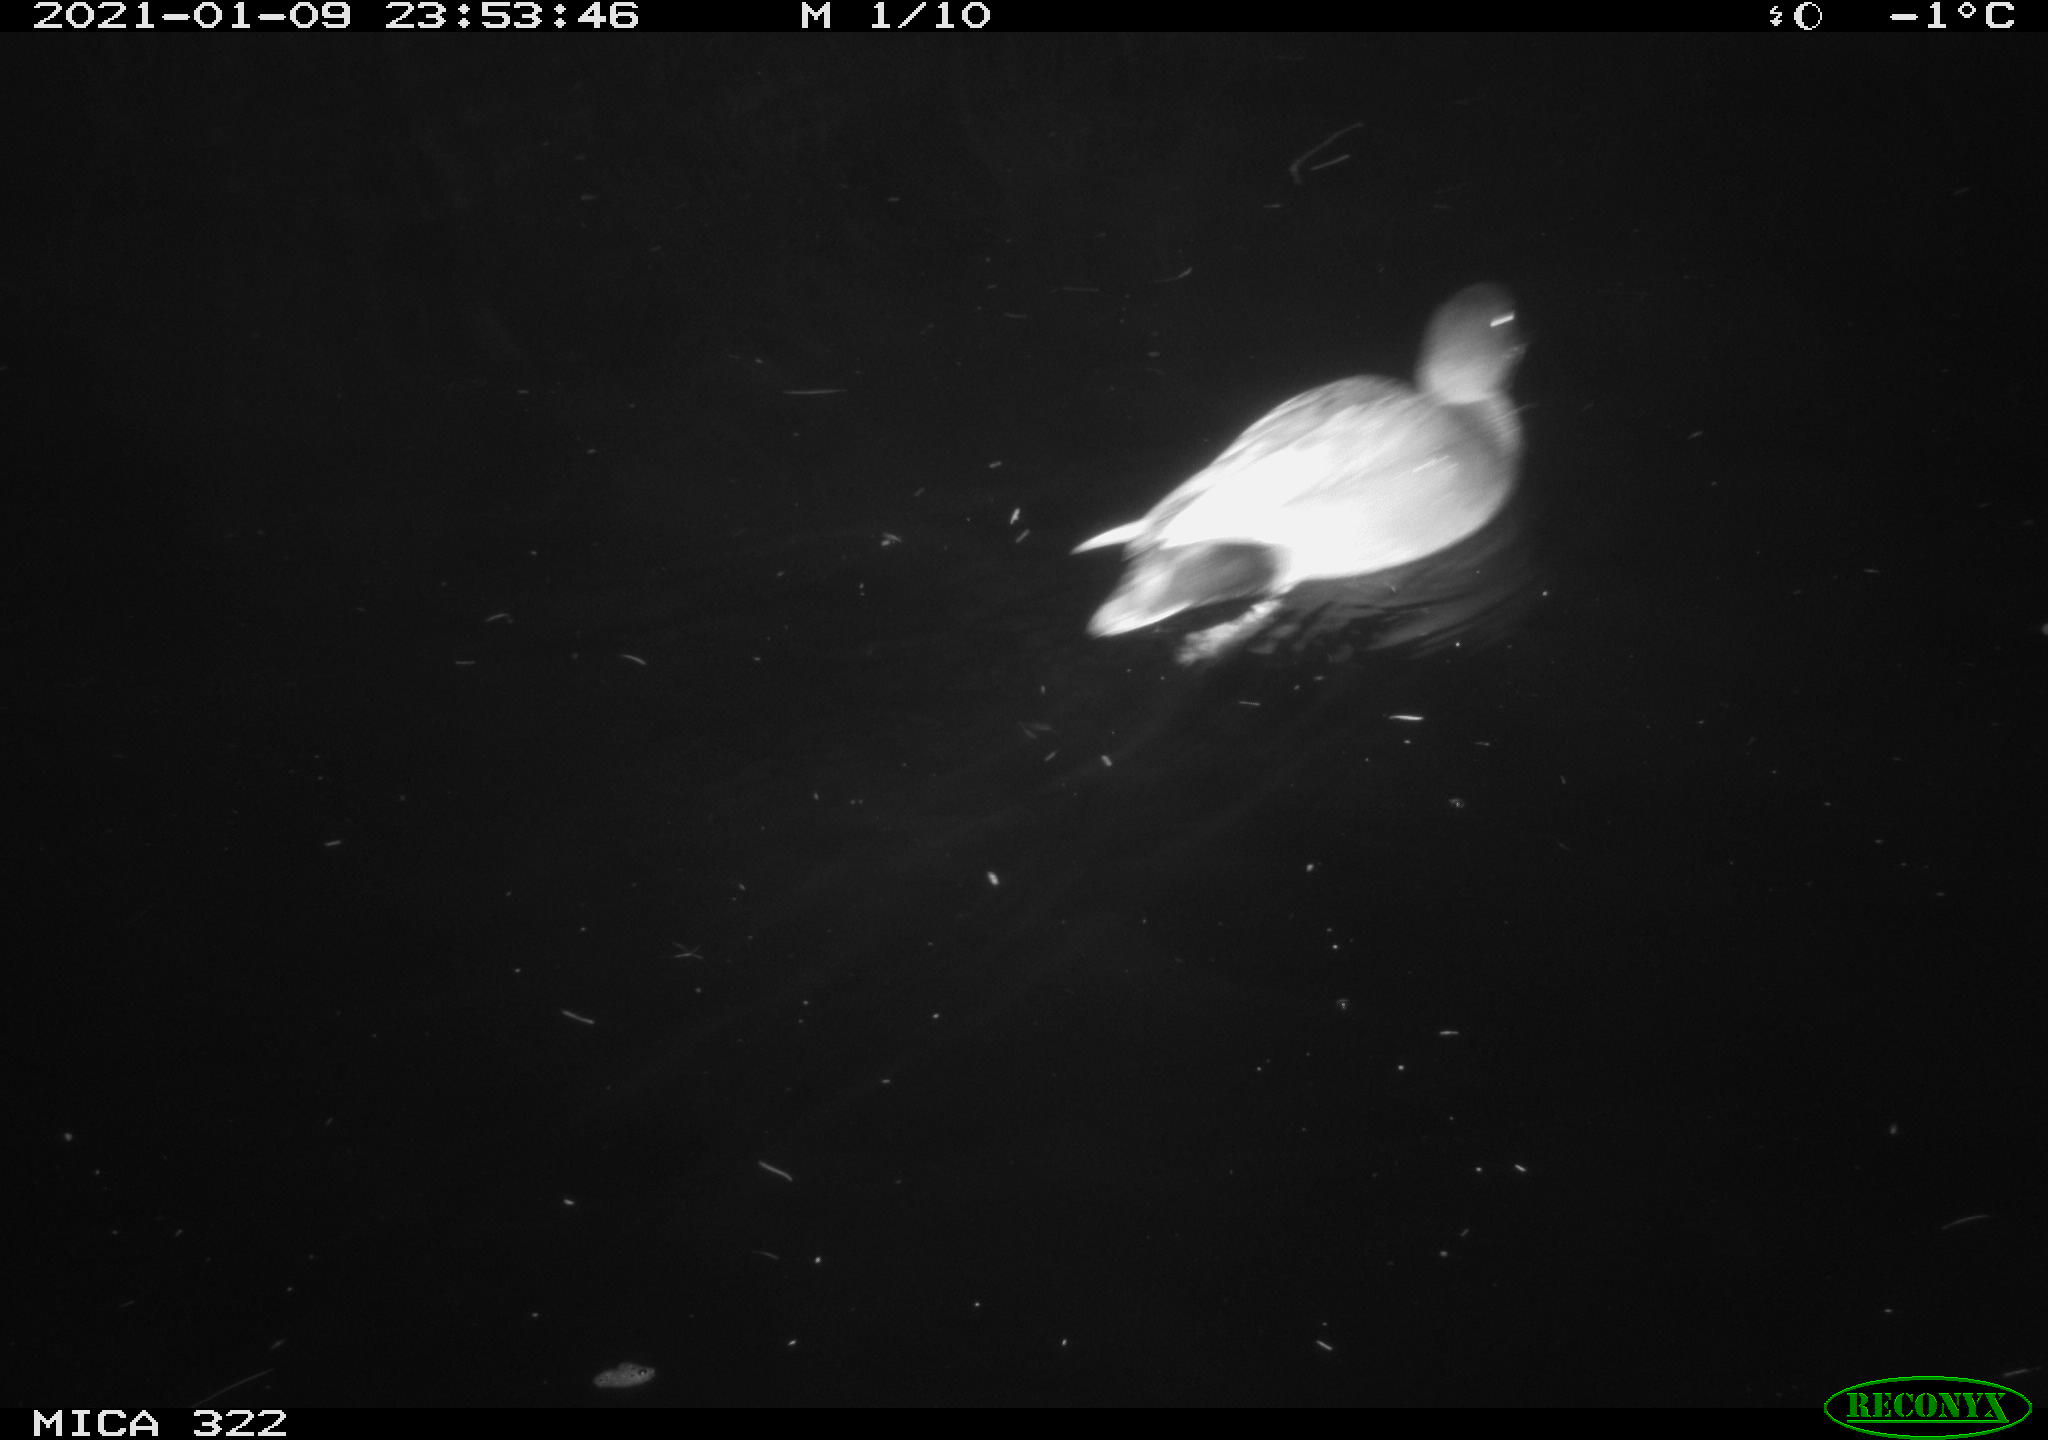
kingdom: Animalia
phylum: Chordata
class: Aves
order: Anseriformes
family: Anatidae
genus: Mareca
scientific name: Mareca strepera
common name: Gadwall
